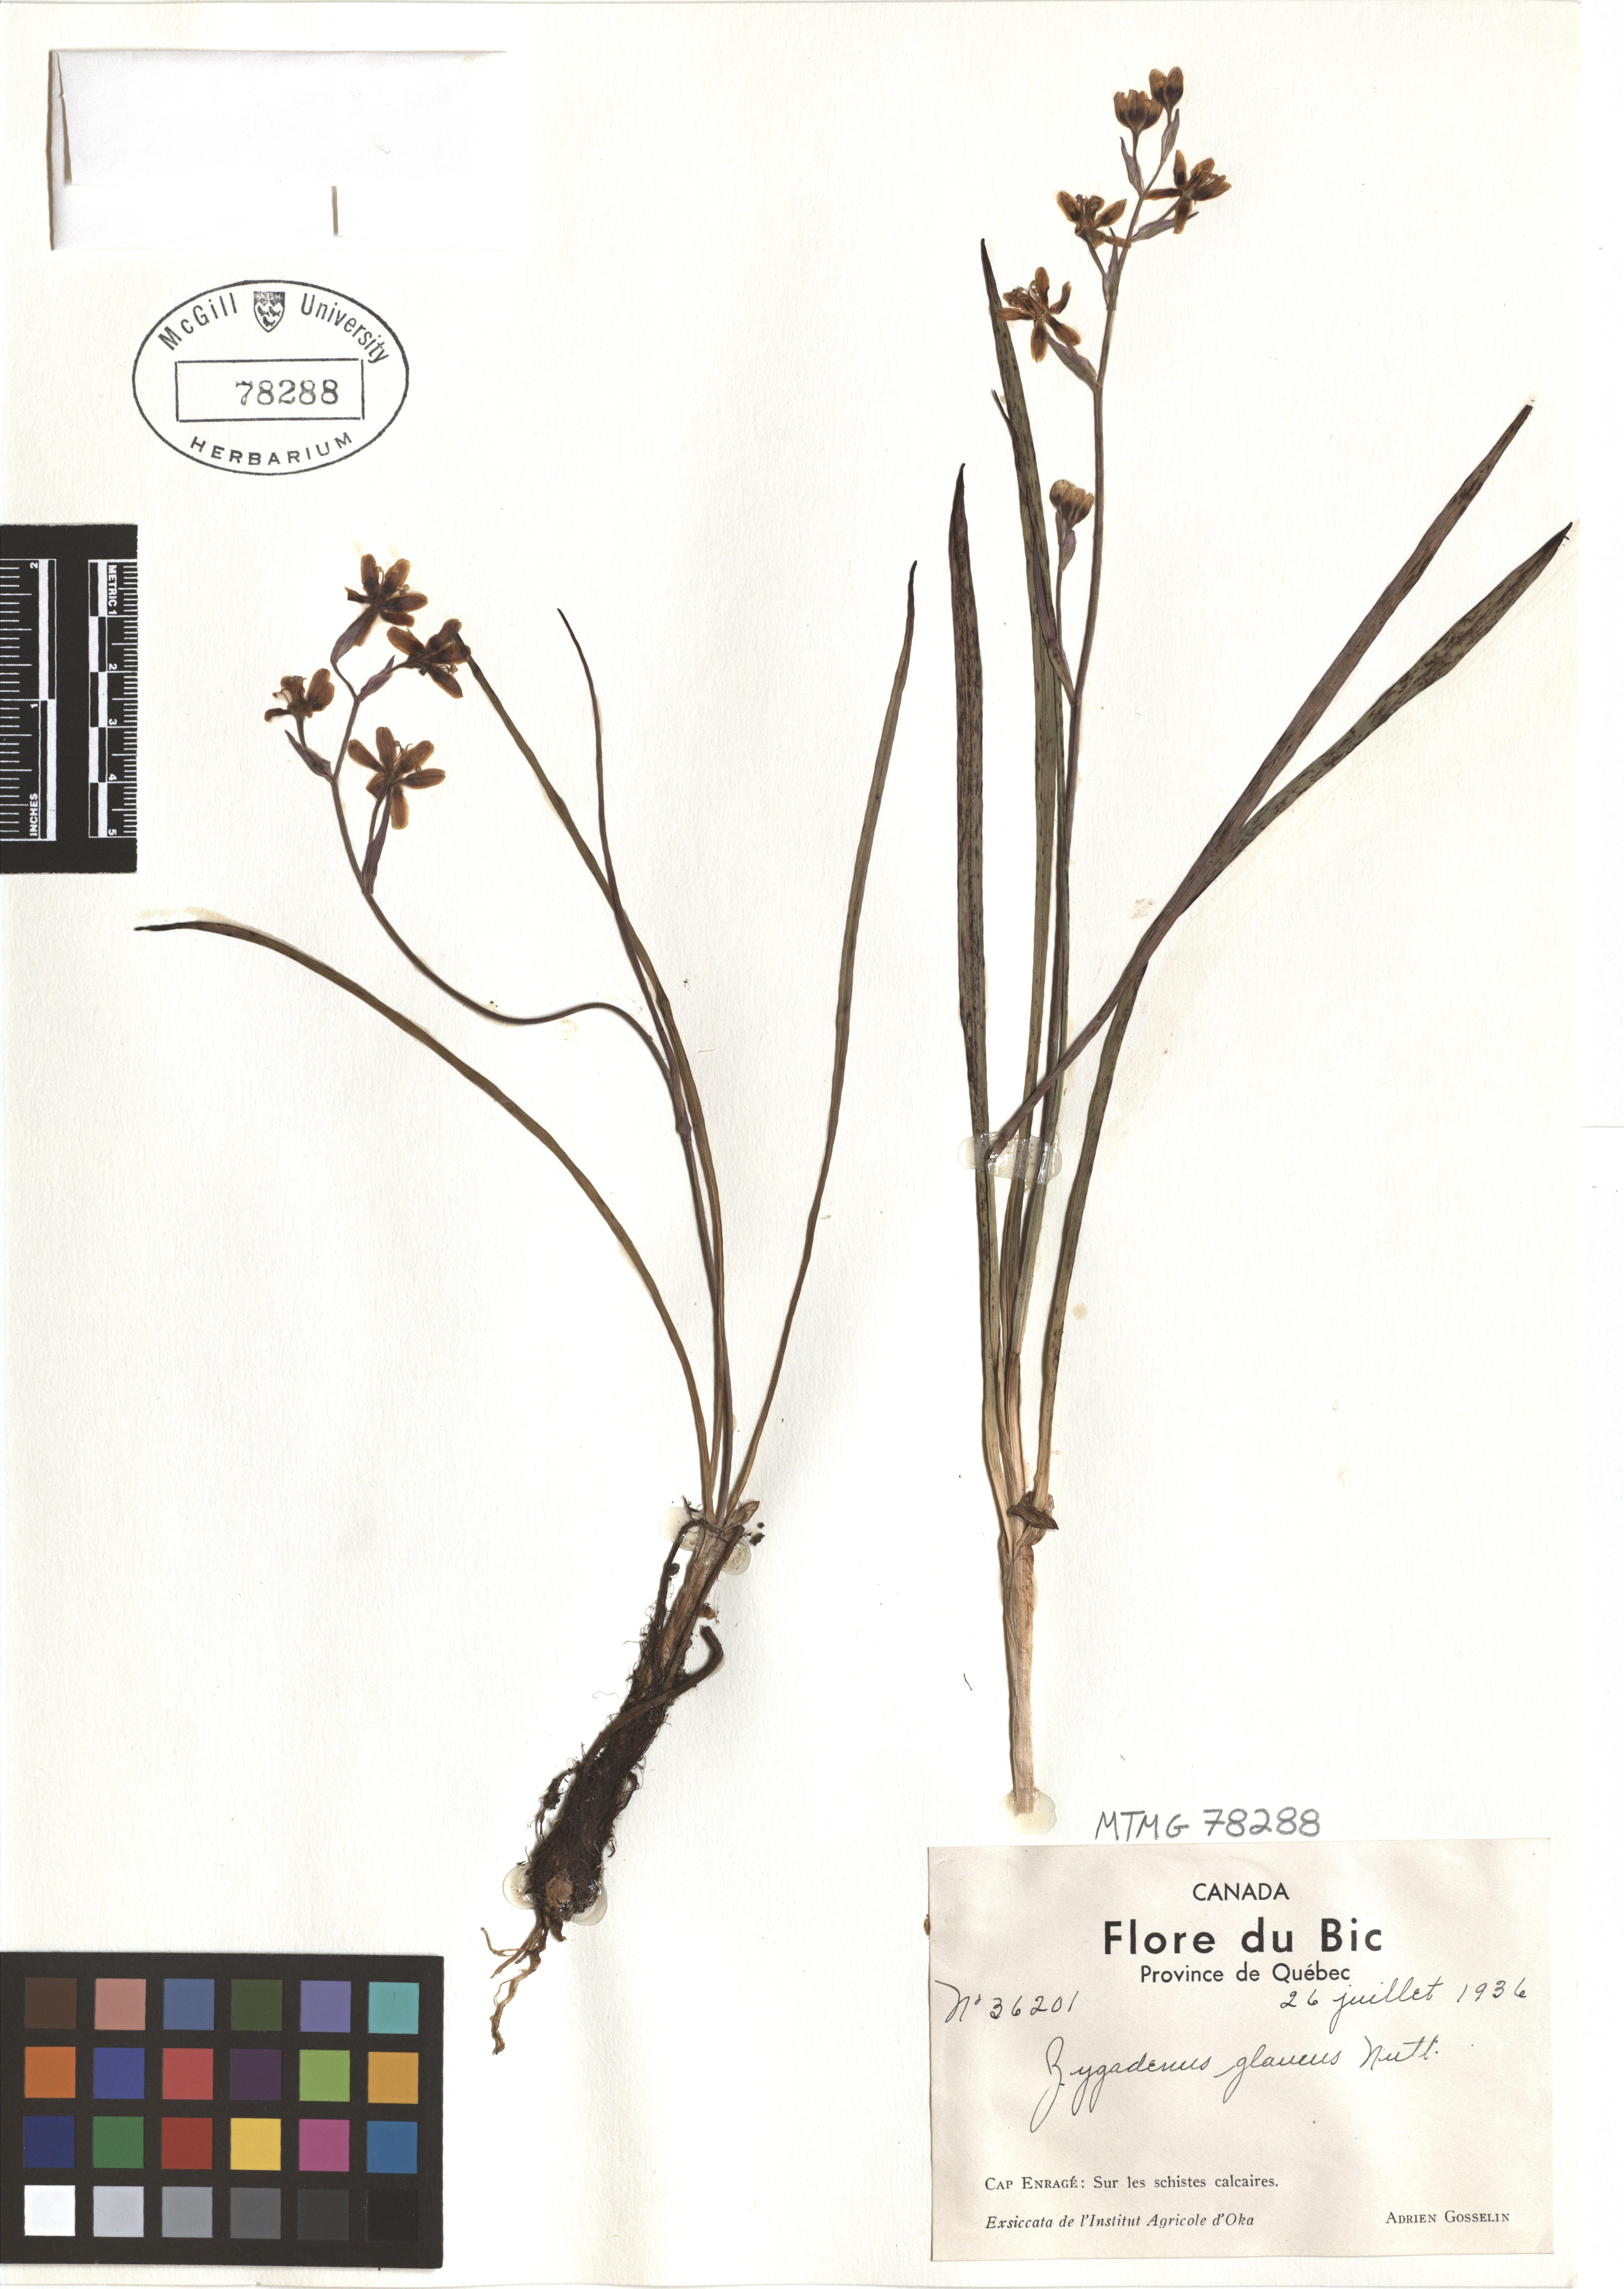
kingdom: Plantae
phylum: Tracheophyta
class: Liliopsida
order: Liliales
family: Melanthiaceae
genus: Anticlea
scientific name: Anticlea elegans
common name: Mountain death camas
